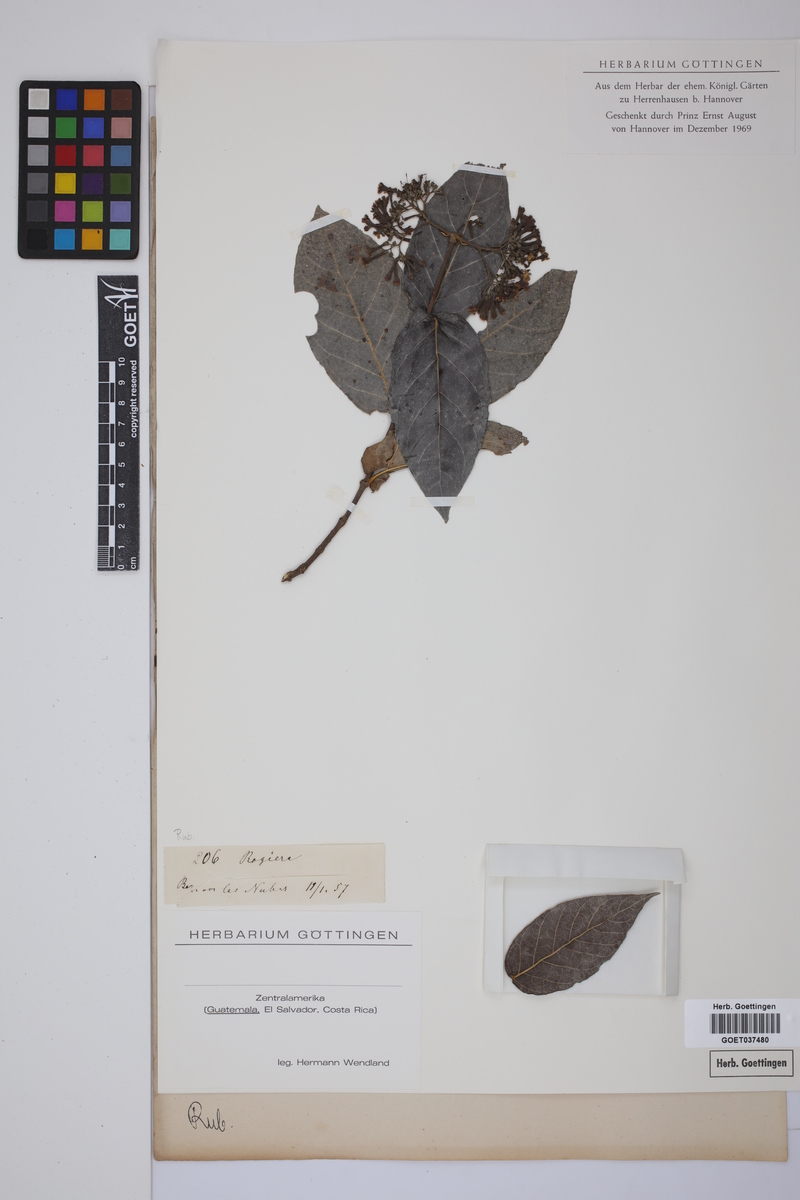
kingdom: Plantae
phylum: Tracheophyta
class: Magnoliopsida
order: Gentianales
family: Rubiaceae
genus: Rogiera
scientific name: Rogiera
